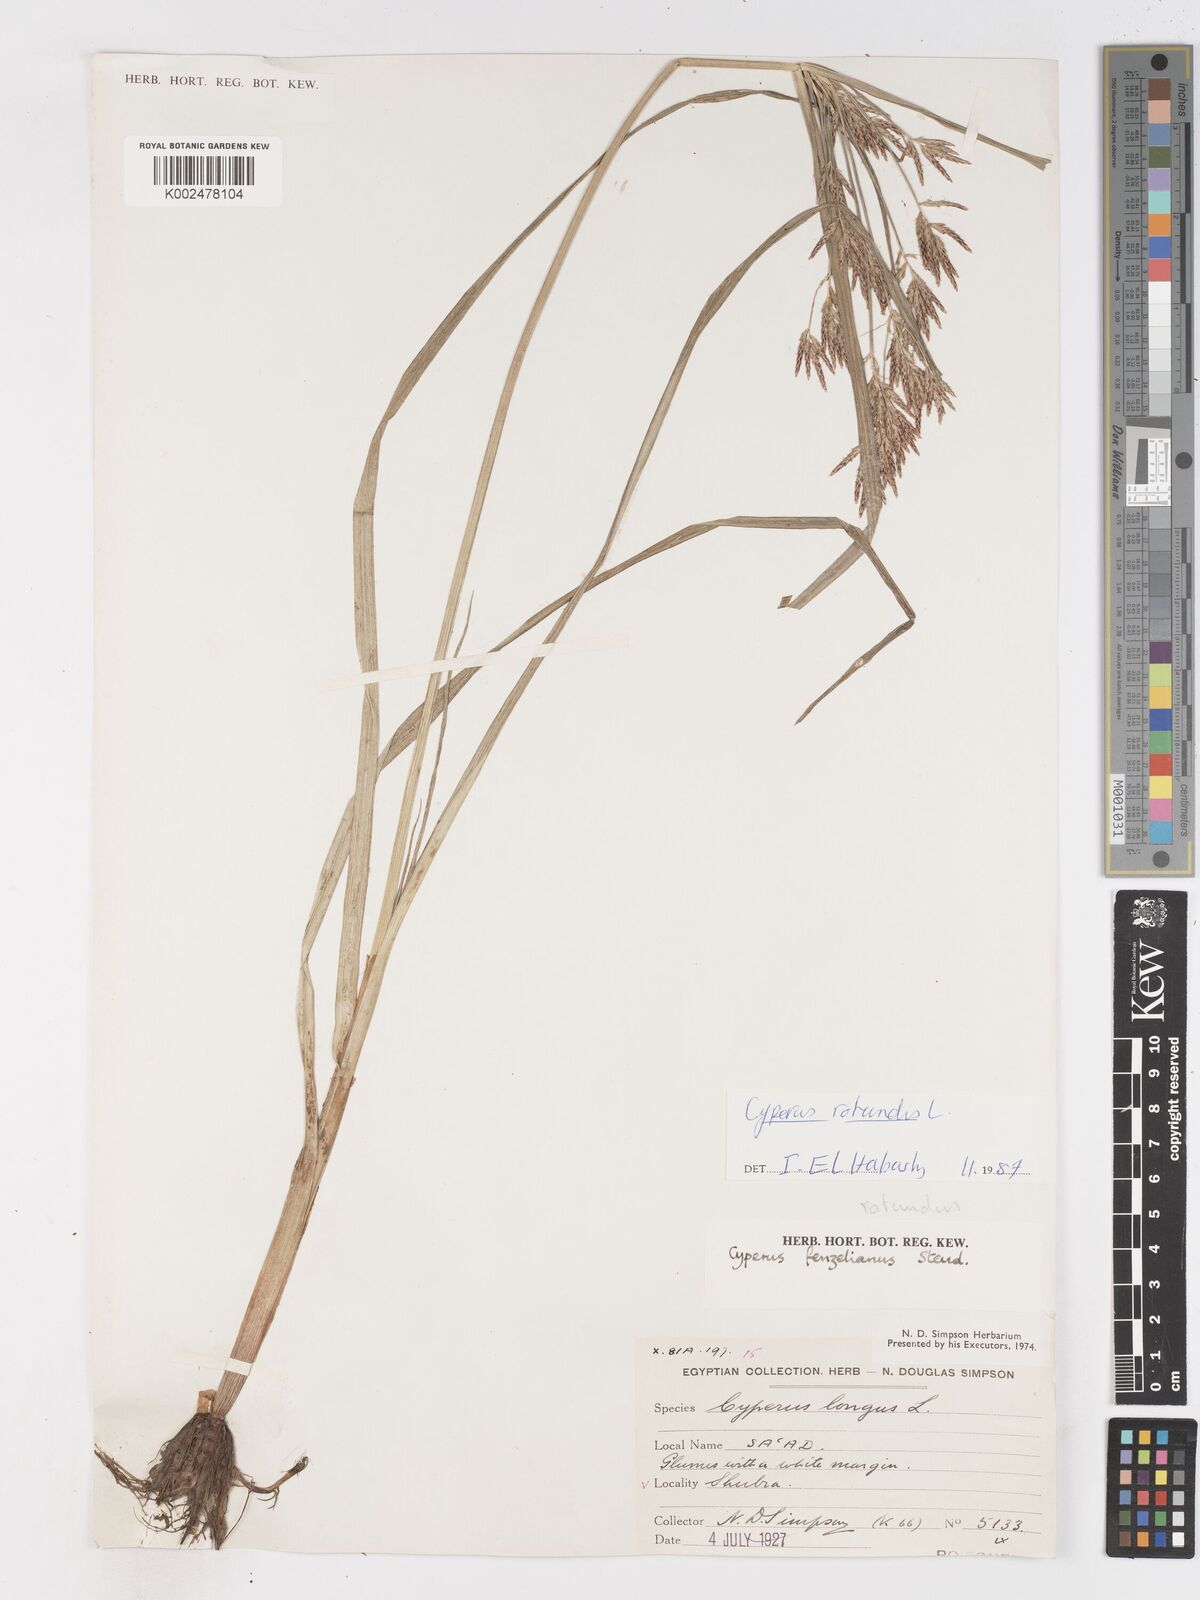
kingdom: Plantae
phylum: Tracheophyta
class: Liliopsida
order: Poales
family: Cyperaceae
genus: Cyperus
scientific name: Cyperus rotundus
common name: Nutgrass
